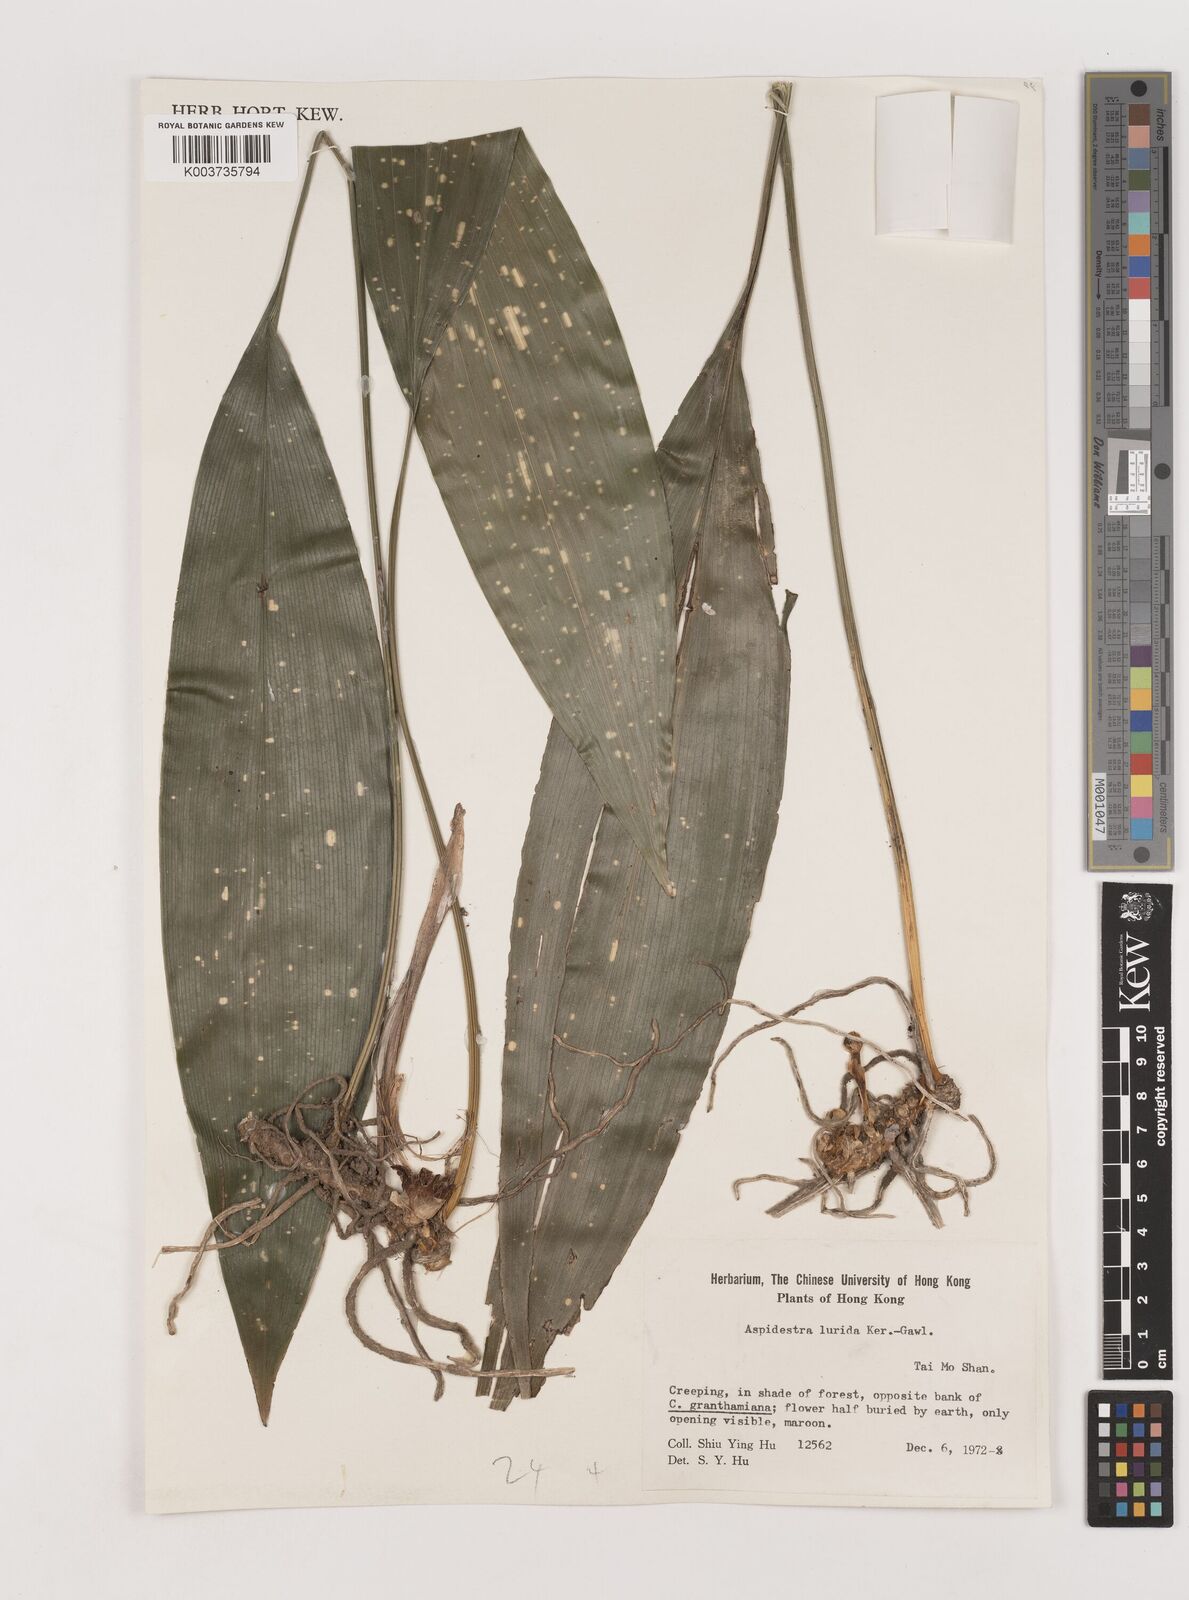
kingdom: Plantae
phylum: Tracheophyta
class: Liliopsida
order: Asparagales
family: Asparagaceae
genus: Aspidistra
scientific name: Aspidistra lurida
